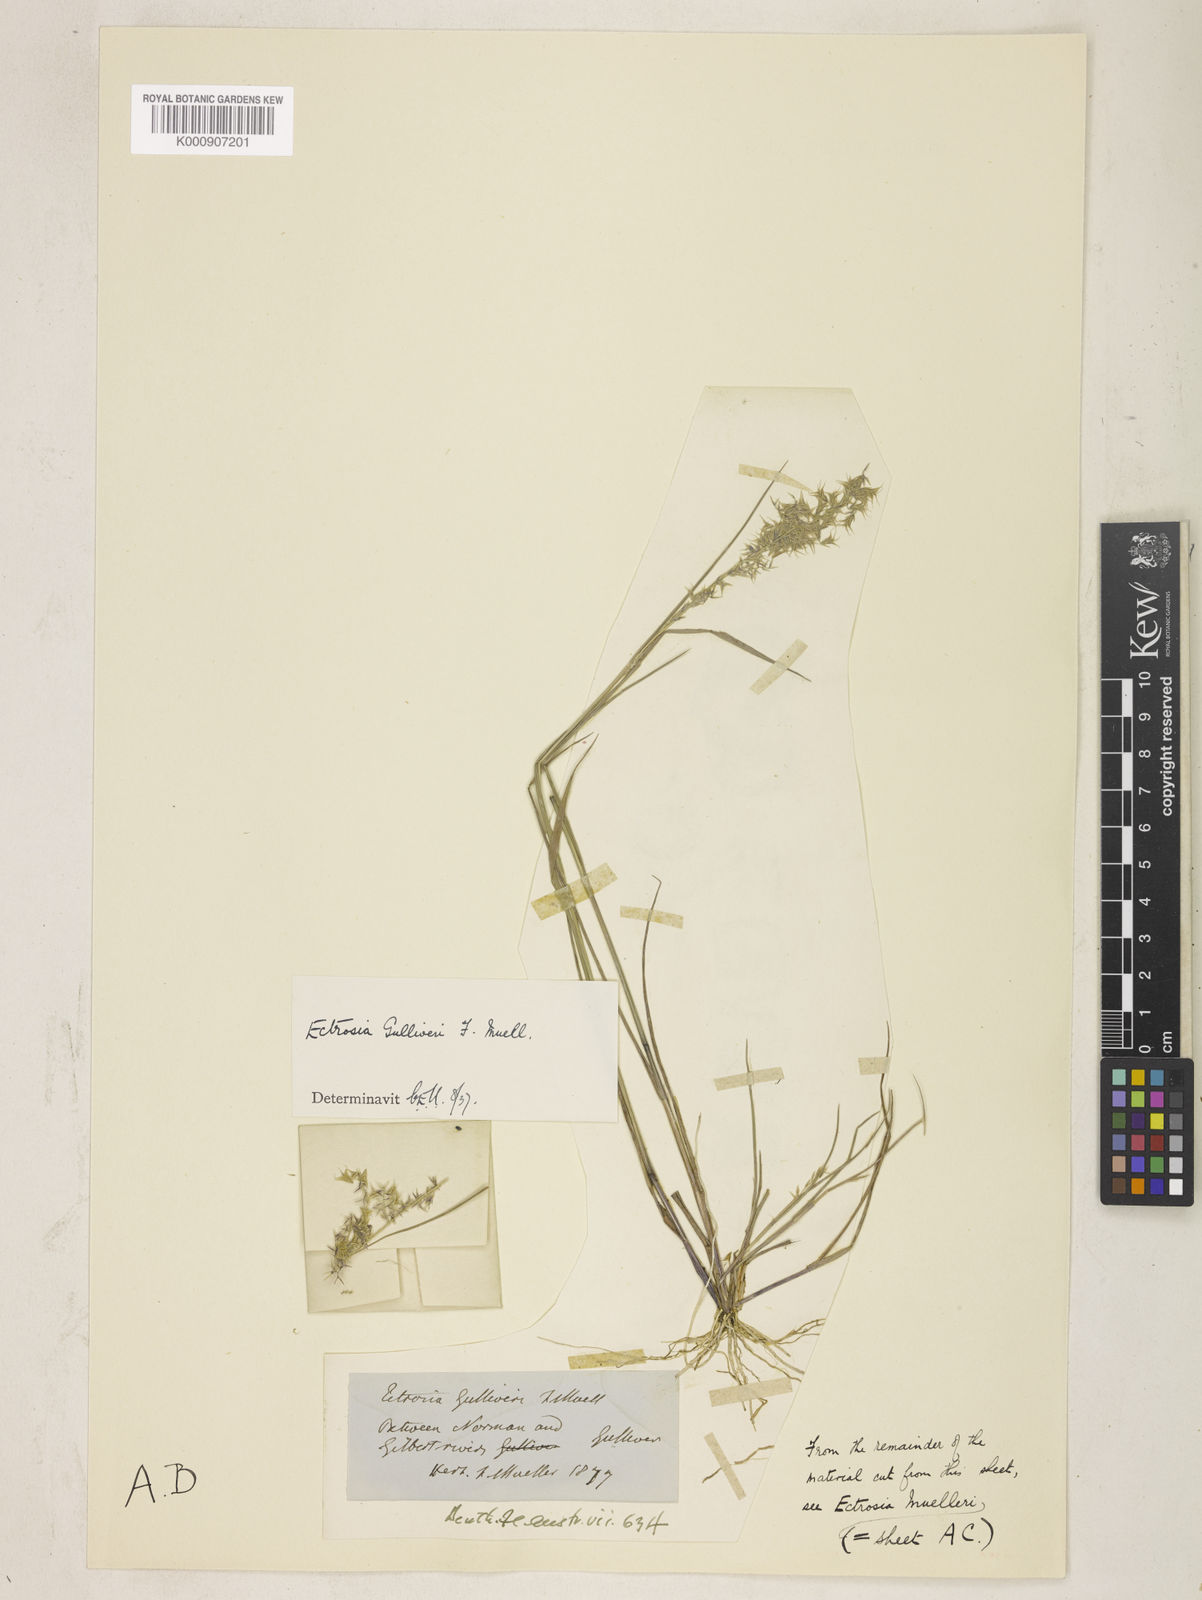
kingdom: Plantae
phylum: Tracheophyta
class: Liliopsida
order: Poales
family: Poaceae
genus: Eragrostis
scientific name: Eragrostis gulliveri
